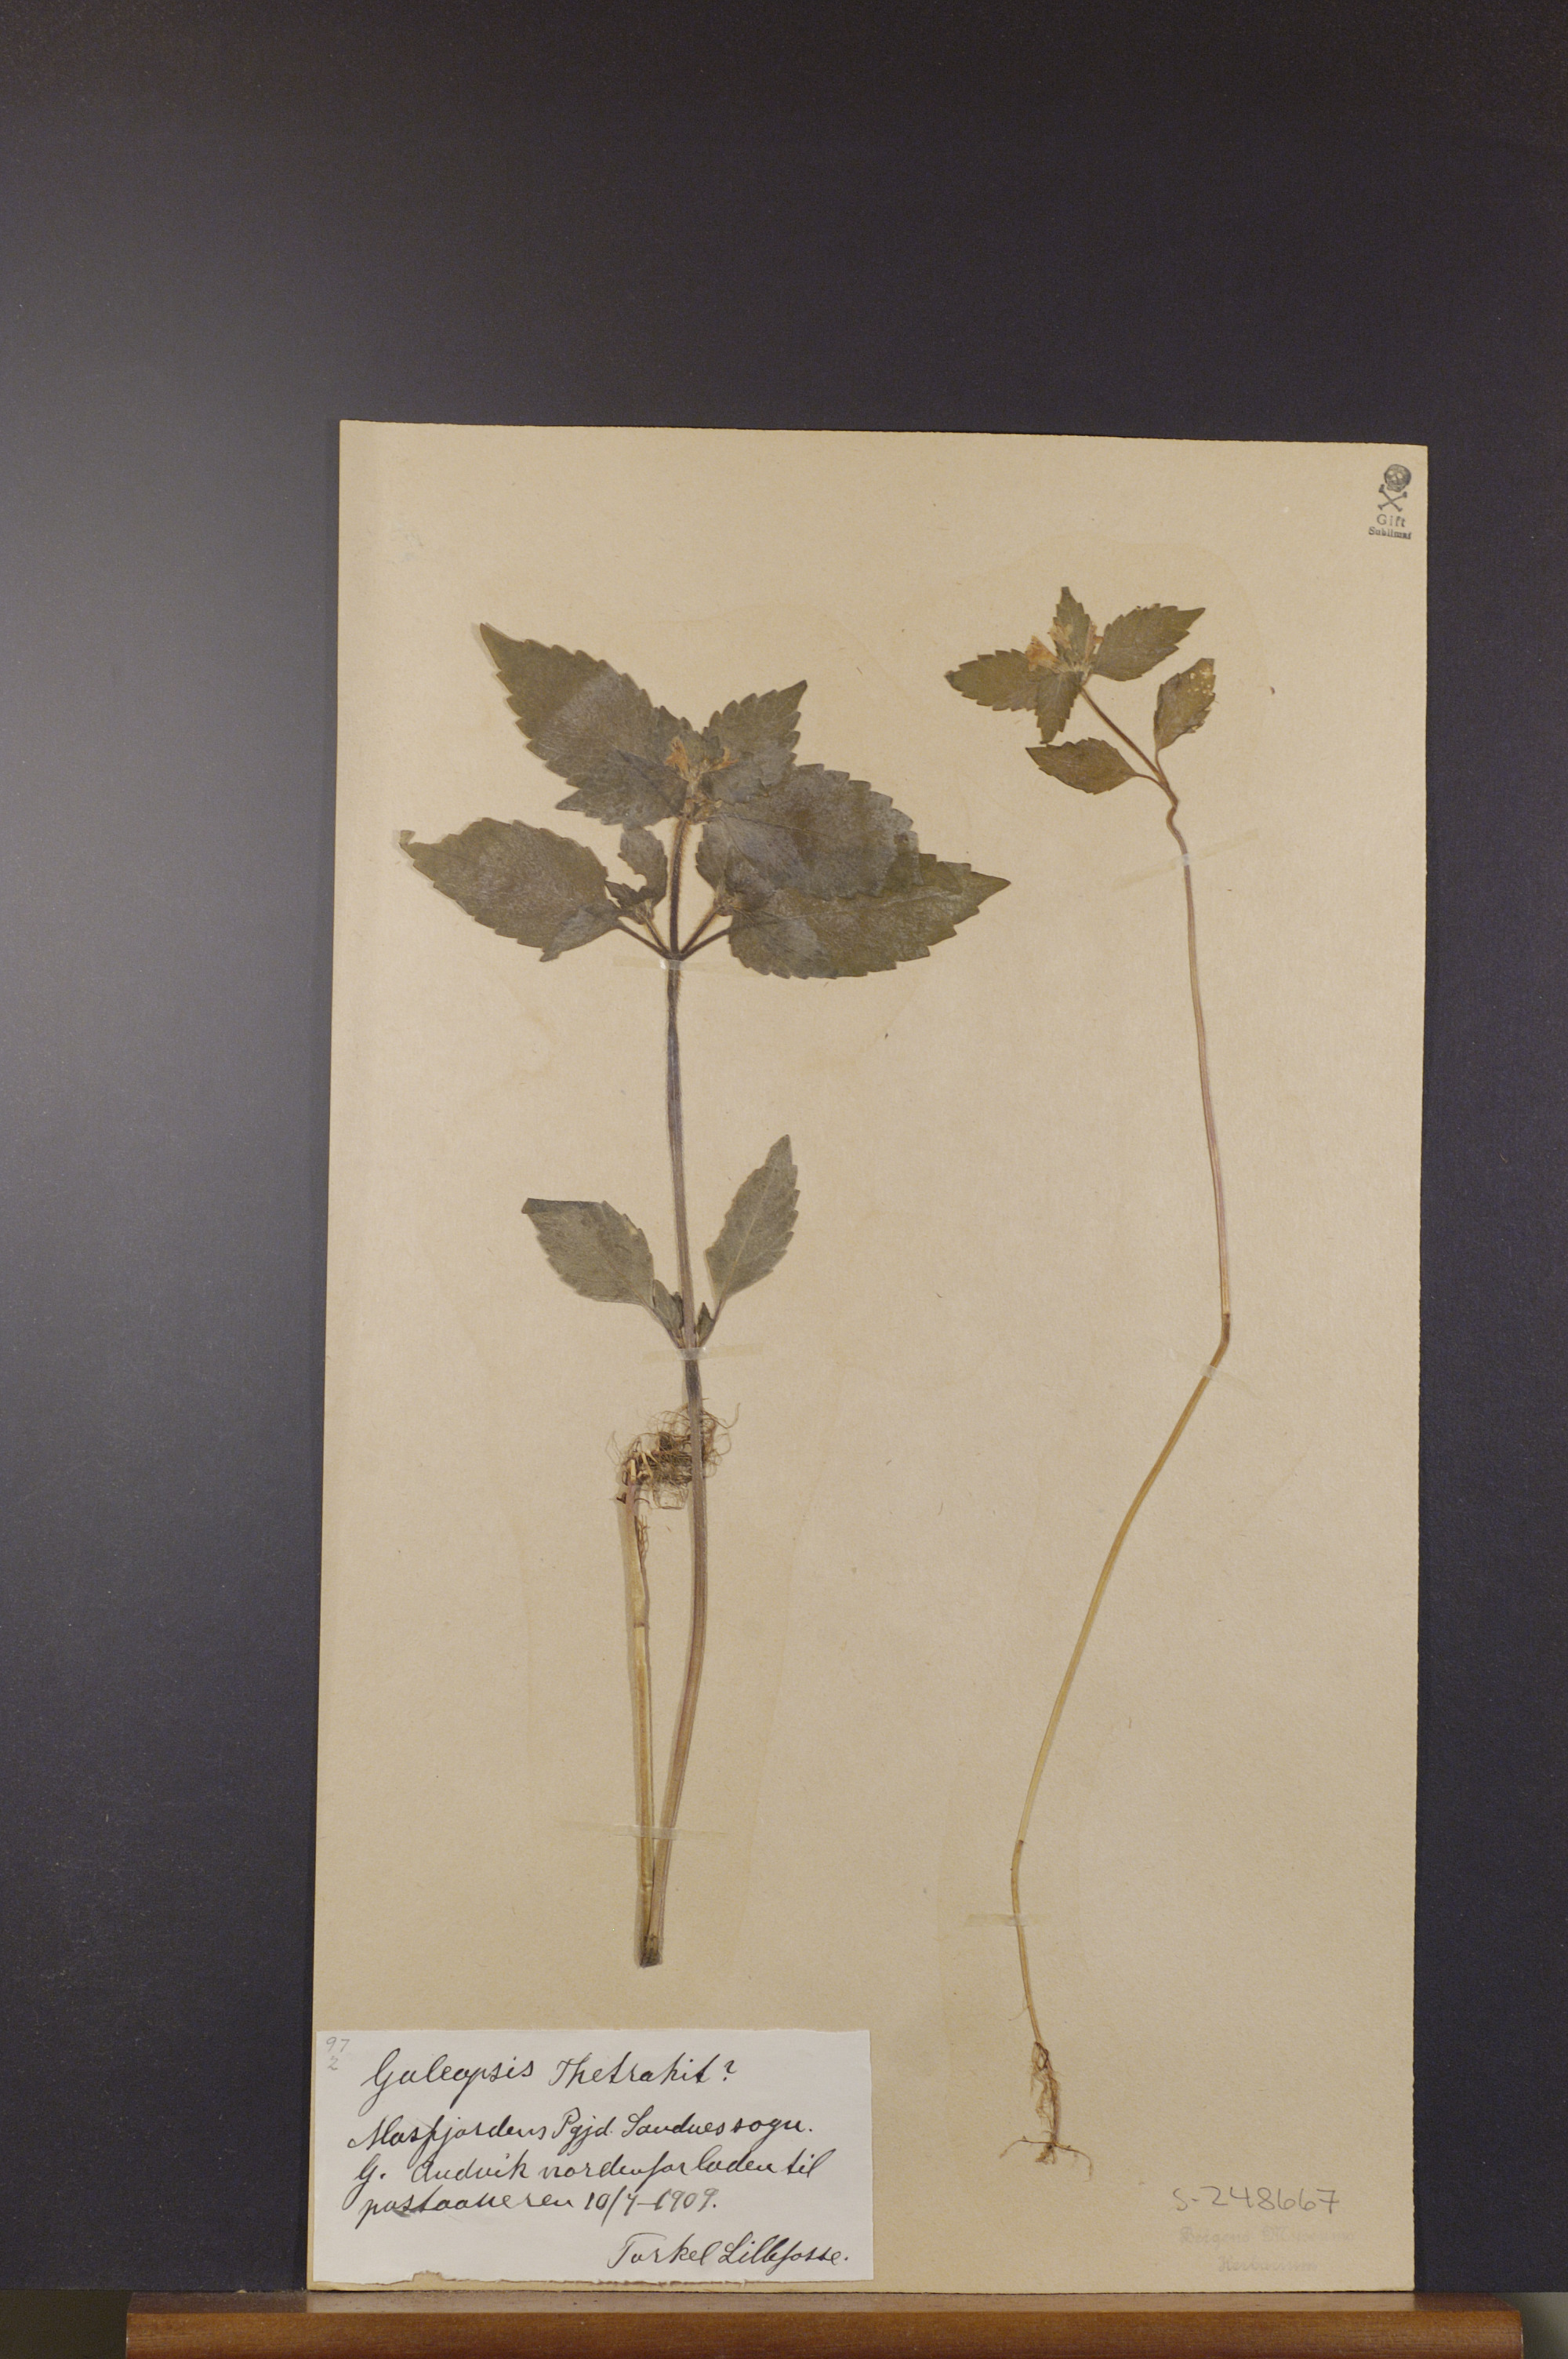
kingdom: Plantae
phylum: Tracheophyta
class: Magnoliopsida
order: Lamiales
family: Lamiaceae
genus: Galeopsis
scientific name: Galeopsis tetrahit
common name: Common hemp-nettle
